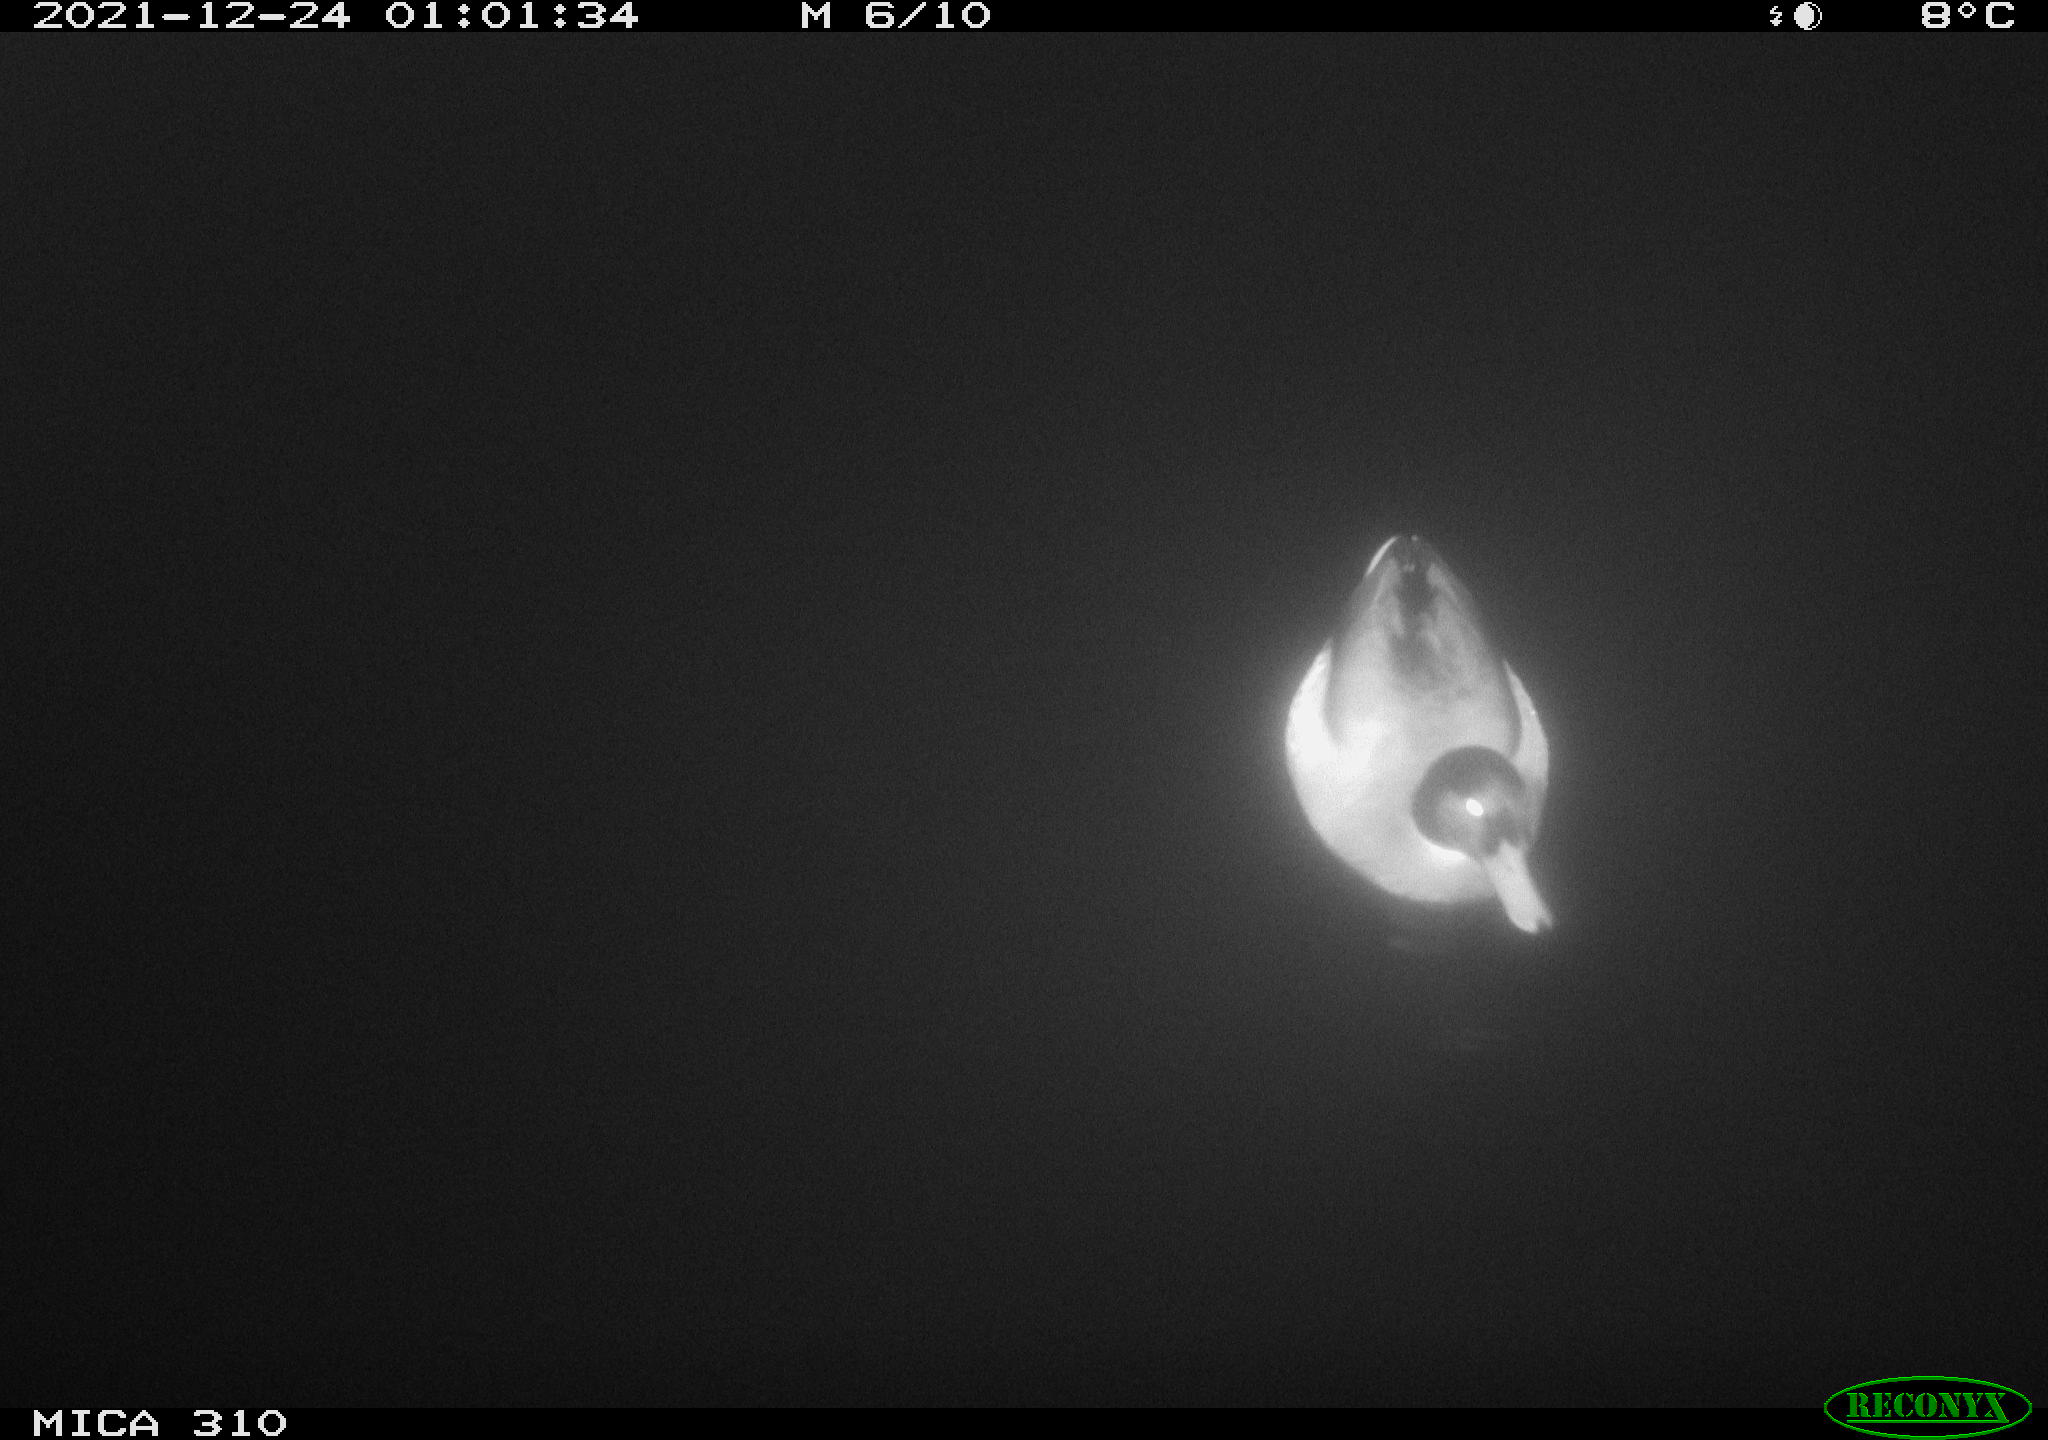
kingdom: Animalia
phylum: Chordata
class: Aves
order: Anseriformes
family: Anatidae
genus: Anas
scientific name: Anas platyrhynchos
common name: Mallard
